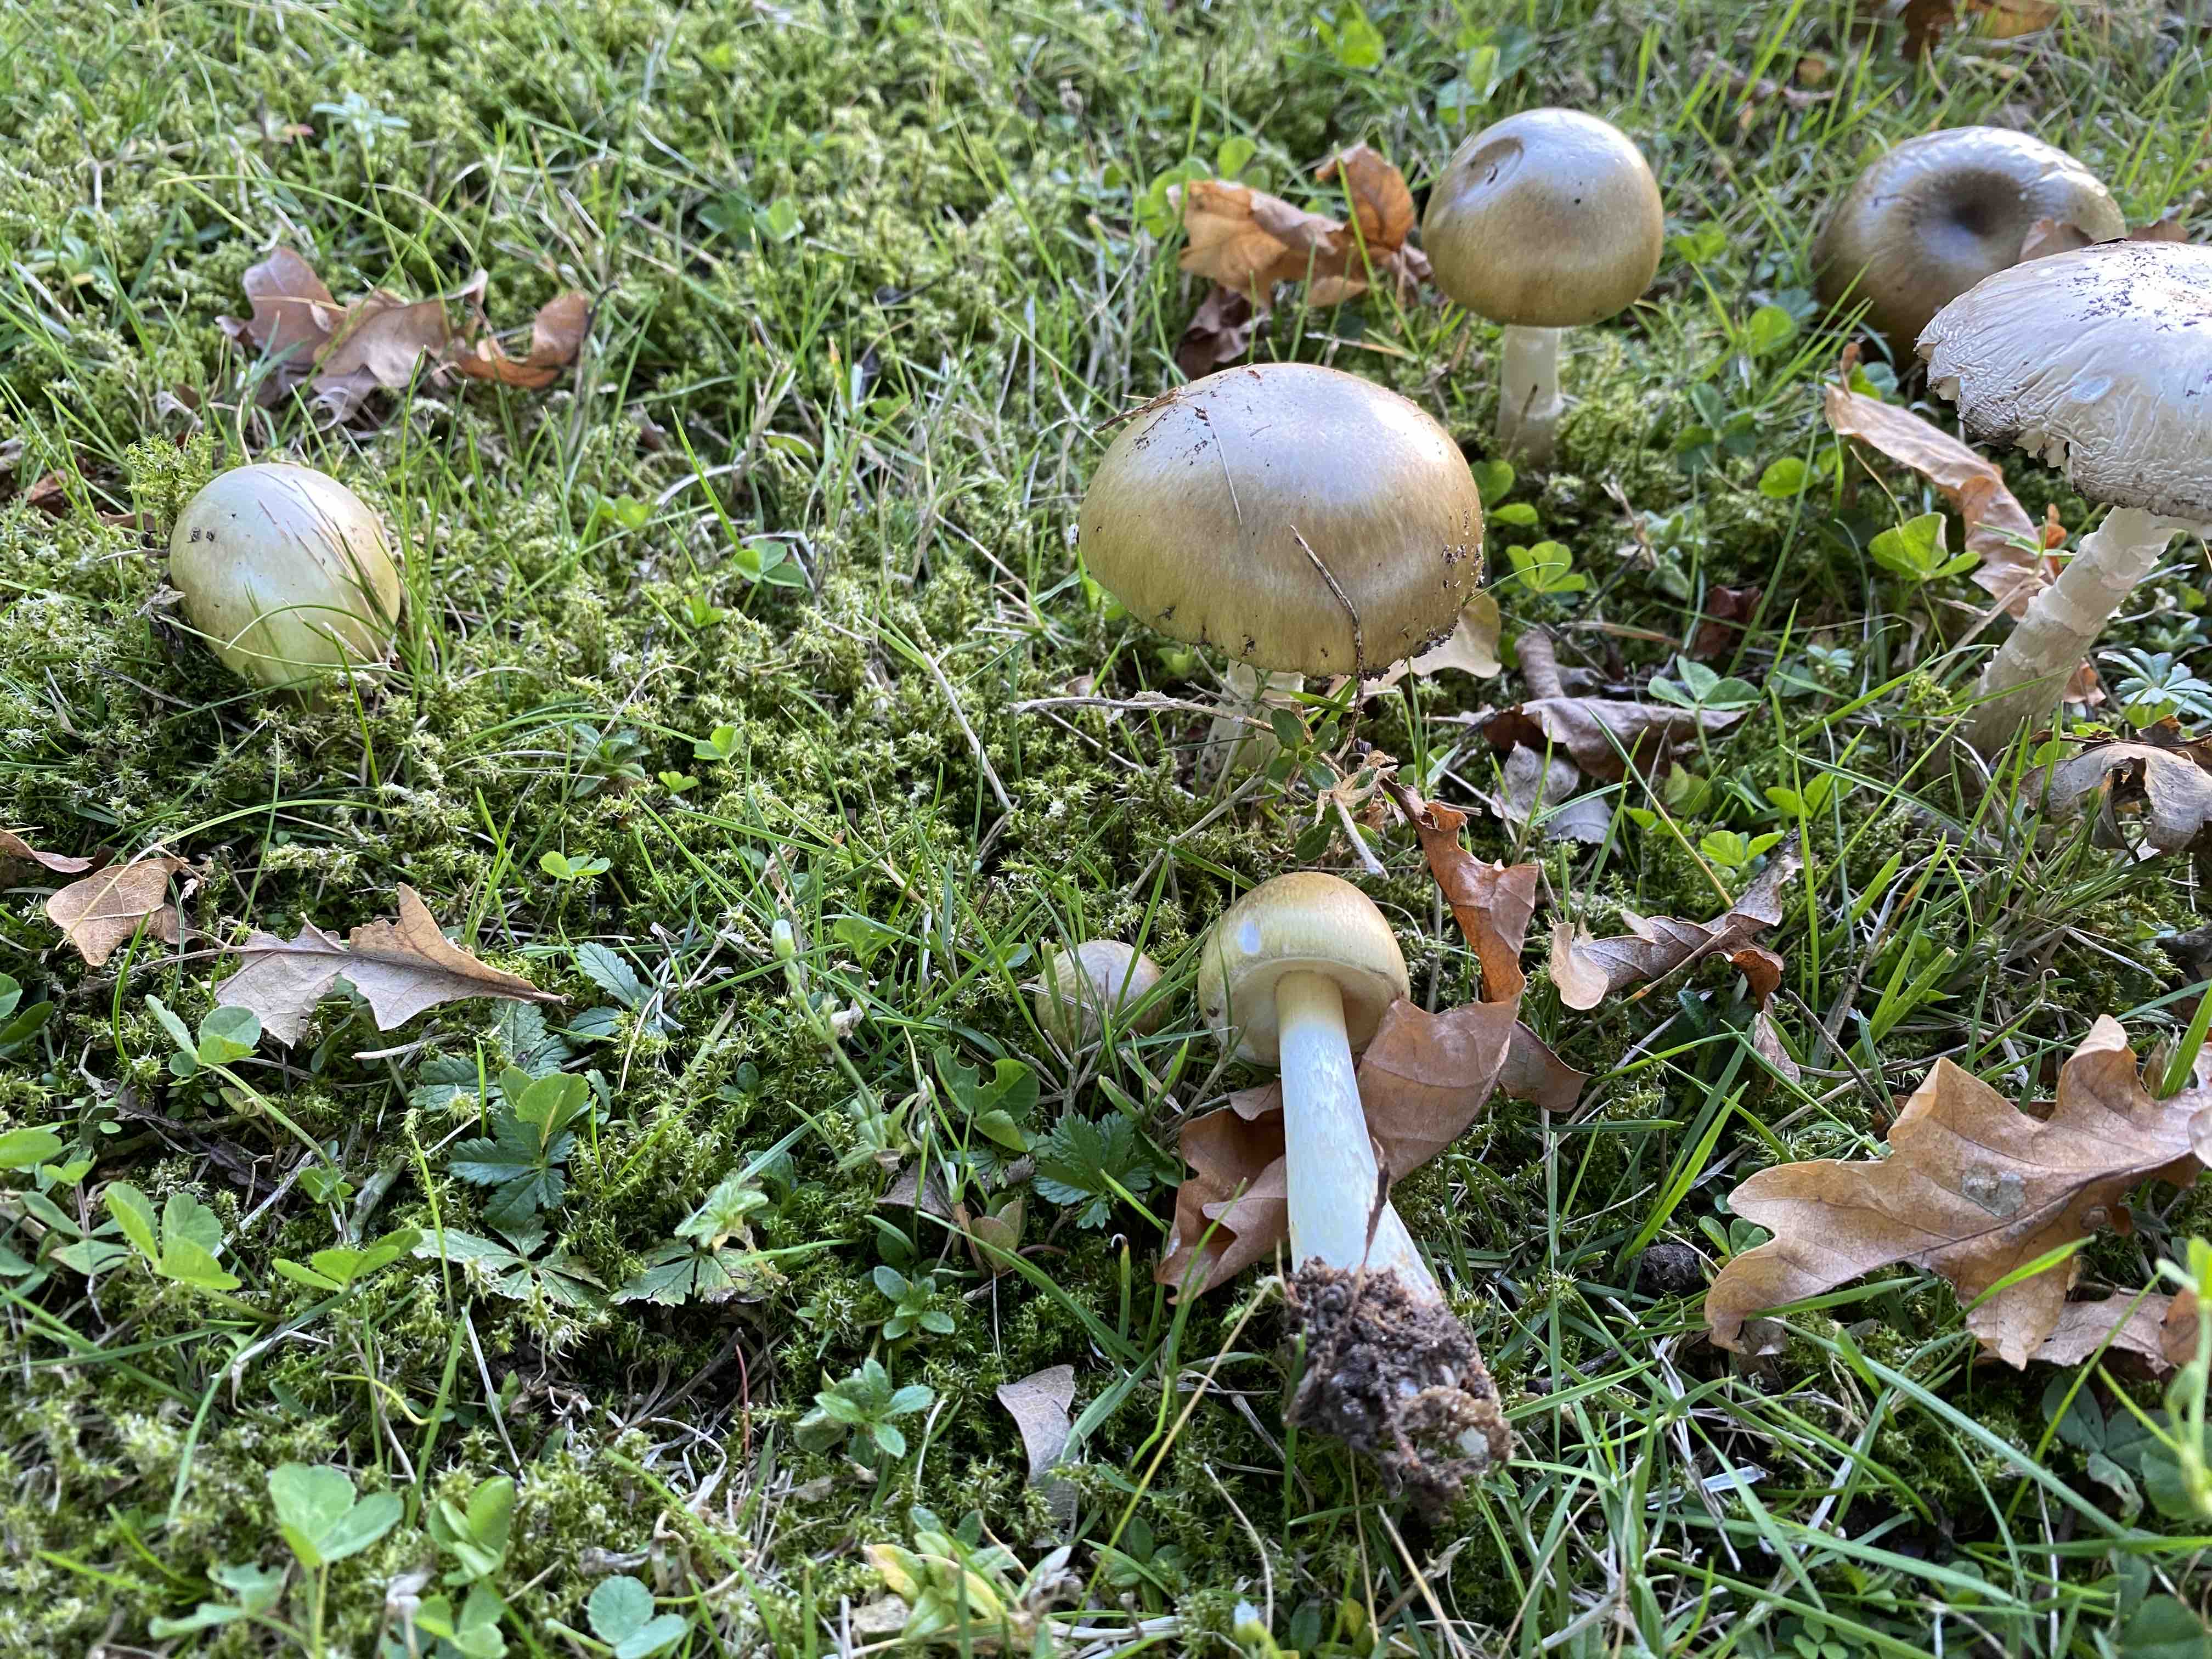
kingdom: Fungi
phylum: Basidiomycota
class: Agaricomycetes
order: Agaricales
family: Amanitaceae
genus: Amanita
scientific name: Amanita phalloides
